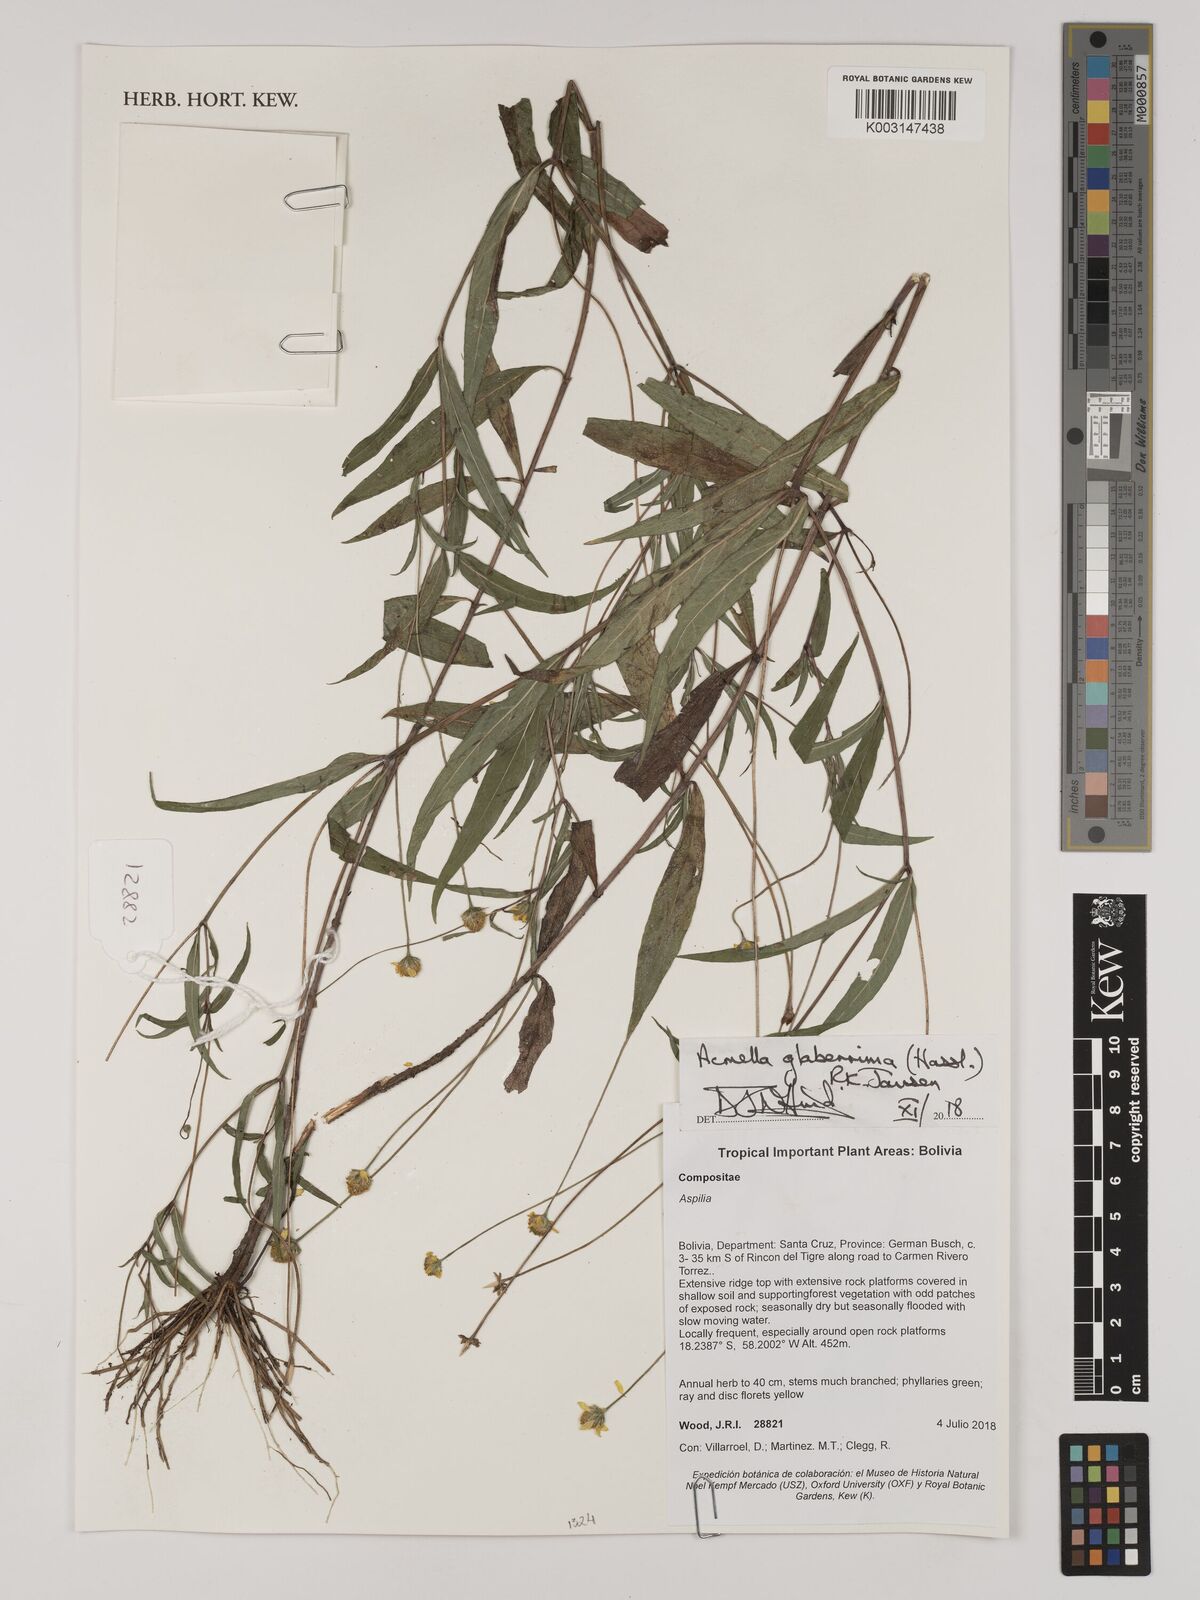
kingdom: Plantae
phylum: Tracheophyta
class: Magnoliopsida
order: Asterales
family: Asteraceae
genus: Acmella
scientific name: Acmella glaberrima
